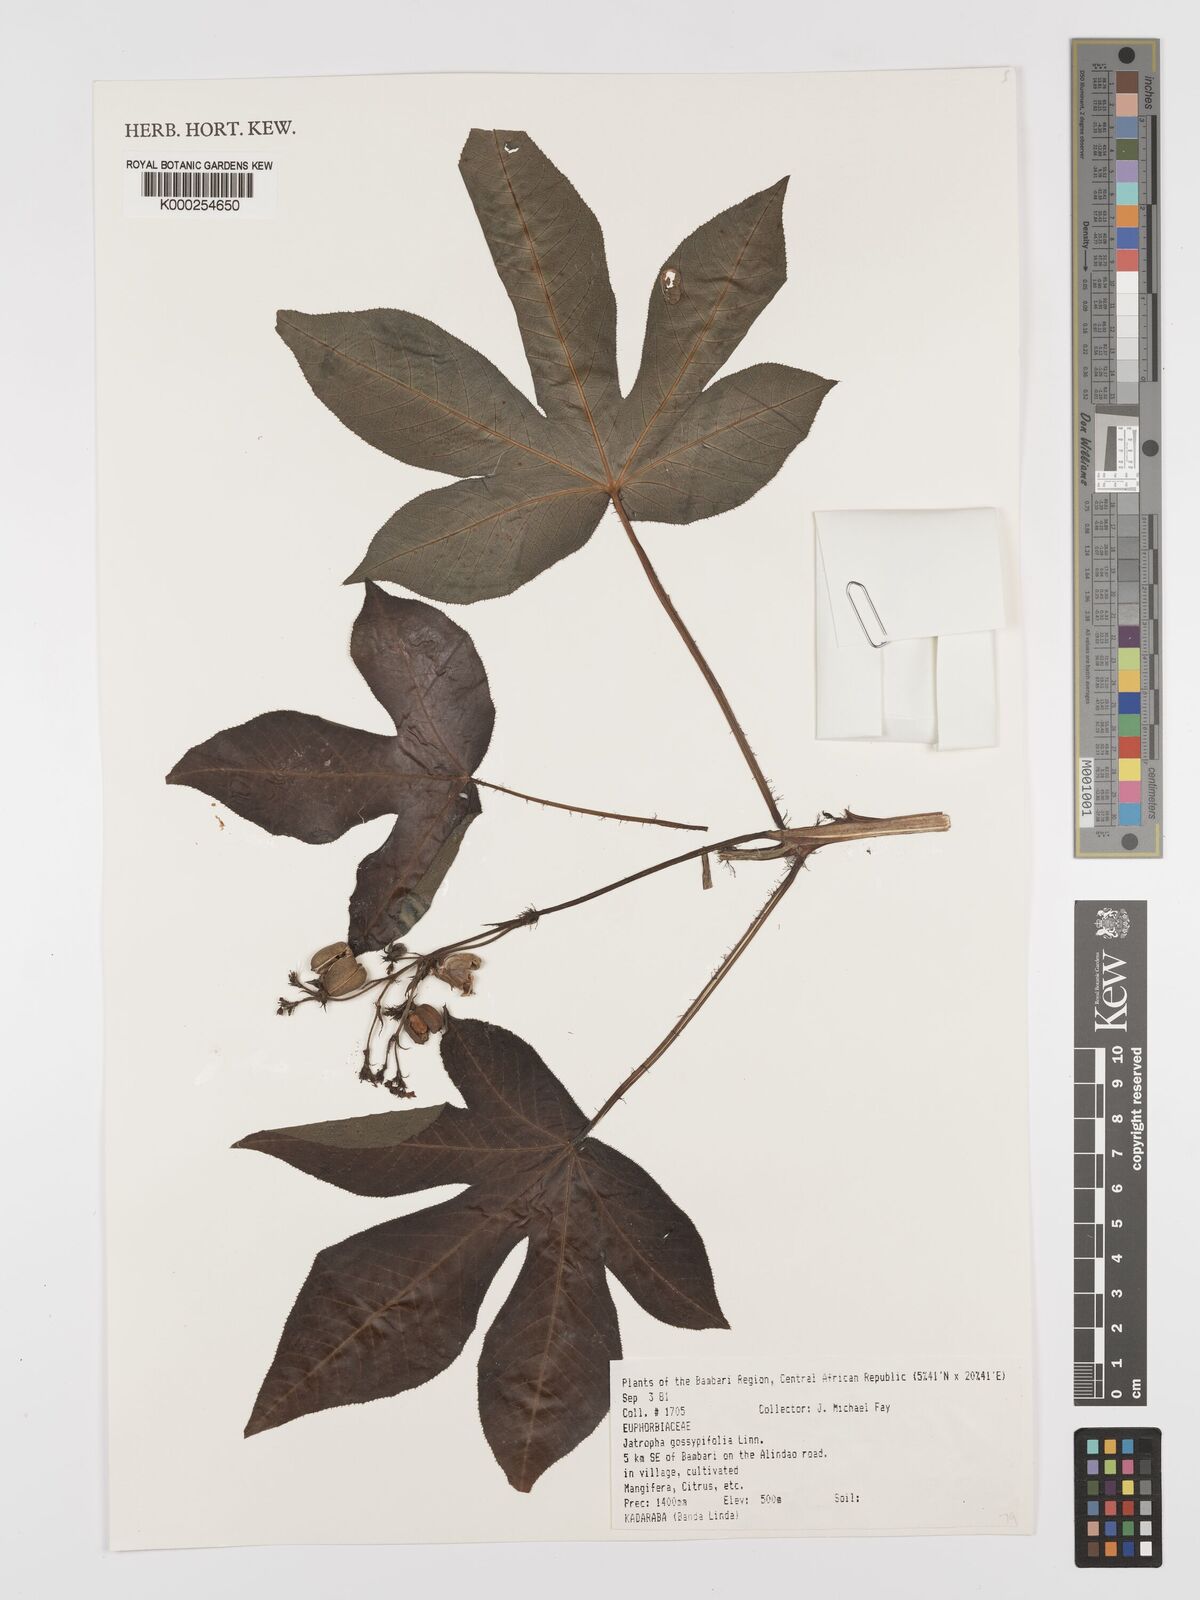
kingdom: Plantae
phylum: Tracheophyta
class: Magnoliopsida
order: Malpighiales
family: Euphorbiaceae
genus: Jatropha
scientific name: Jatropha gossypiifolia
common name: Bellyache bush
